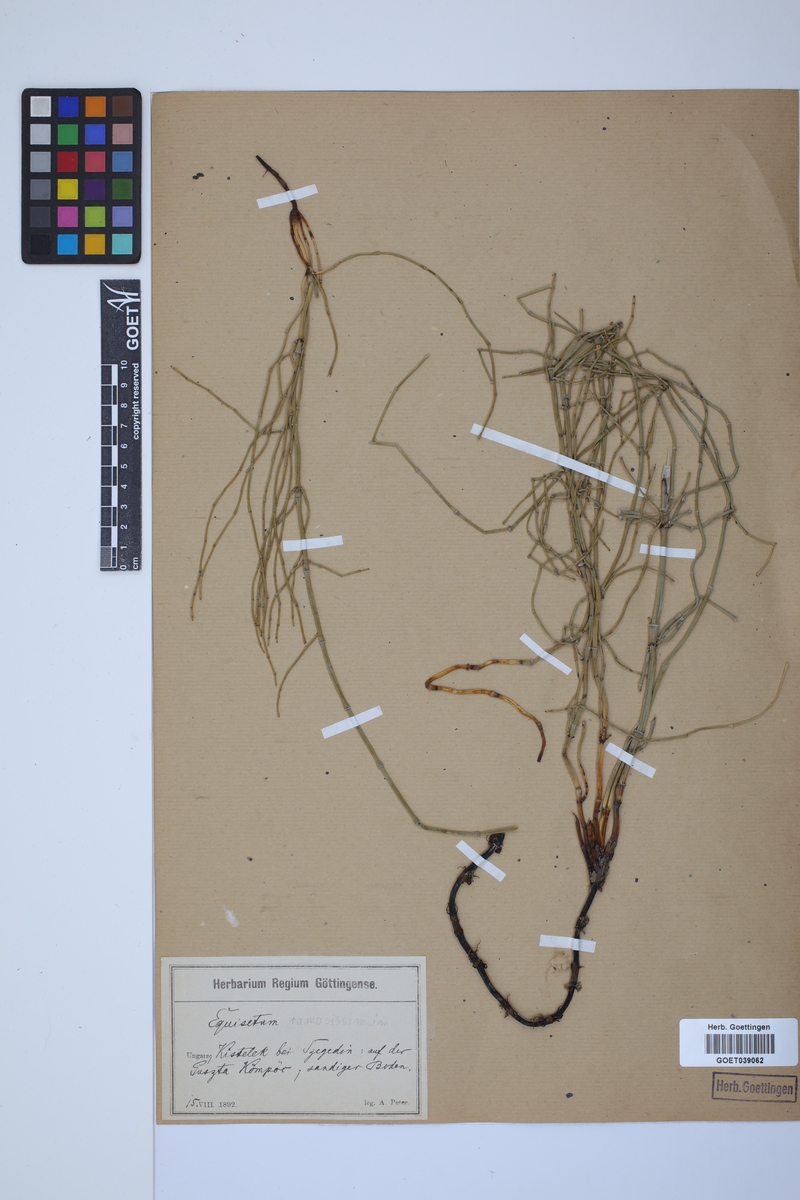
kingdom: Plantae
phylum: Tracheophyta
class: Polypodiopsida
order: Equisetales
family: Equisetaceae
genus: Equisetum
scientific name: Equisetum giganteum
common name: Giant horsetail
